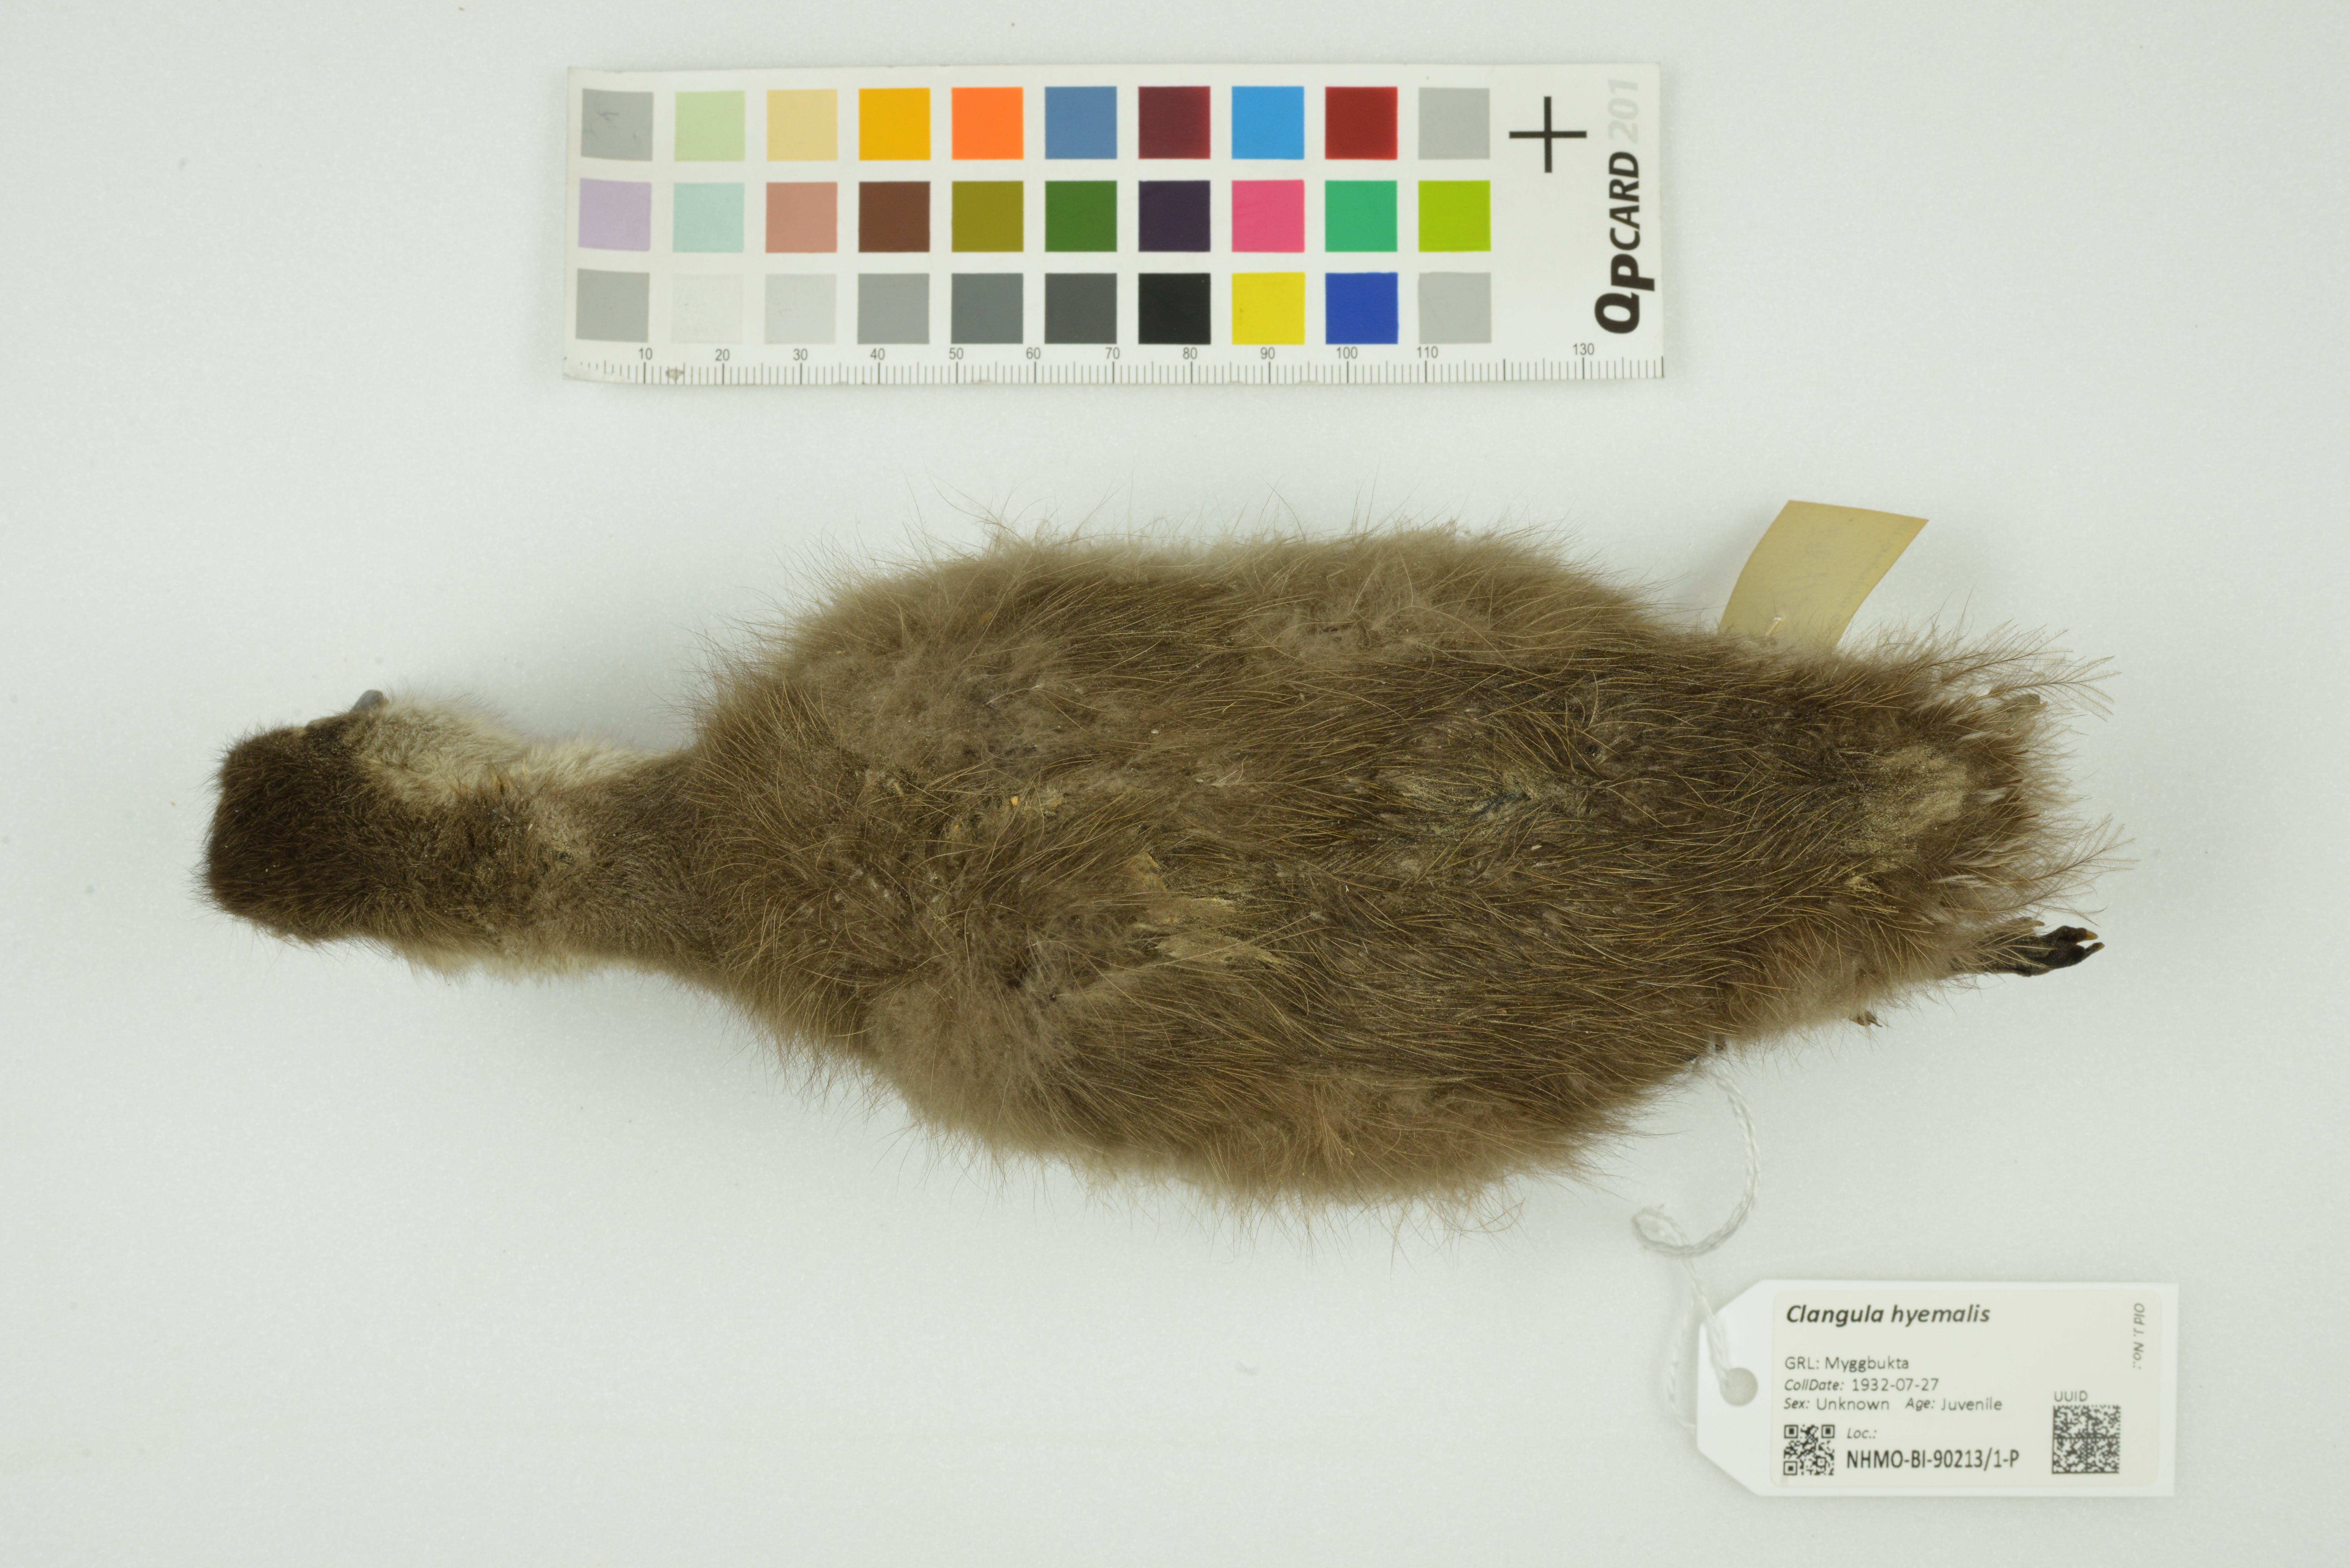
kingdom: Animalia
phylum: Chordata
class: Aves
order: Anseriformes
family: Anatidae
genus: Clangula
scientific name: Clangula hyemalis
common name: Long-tailed duck
